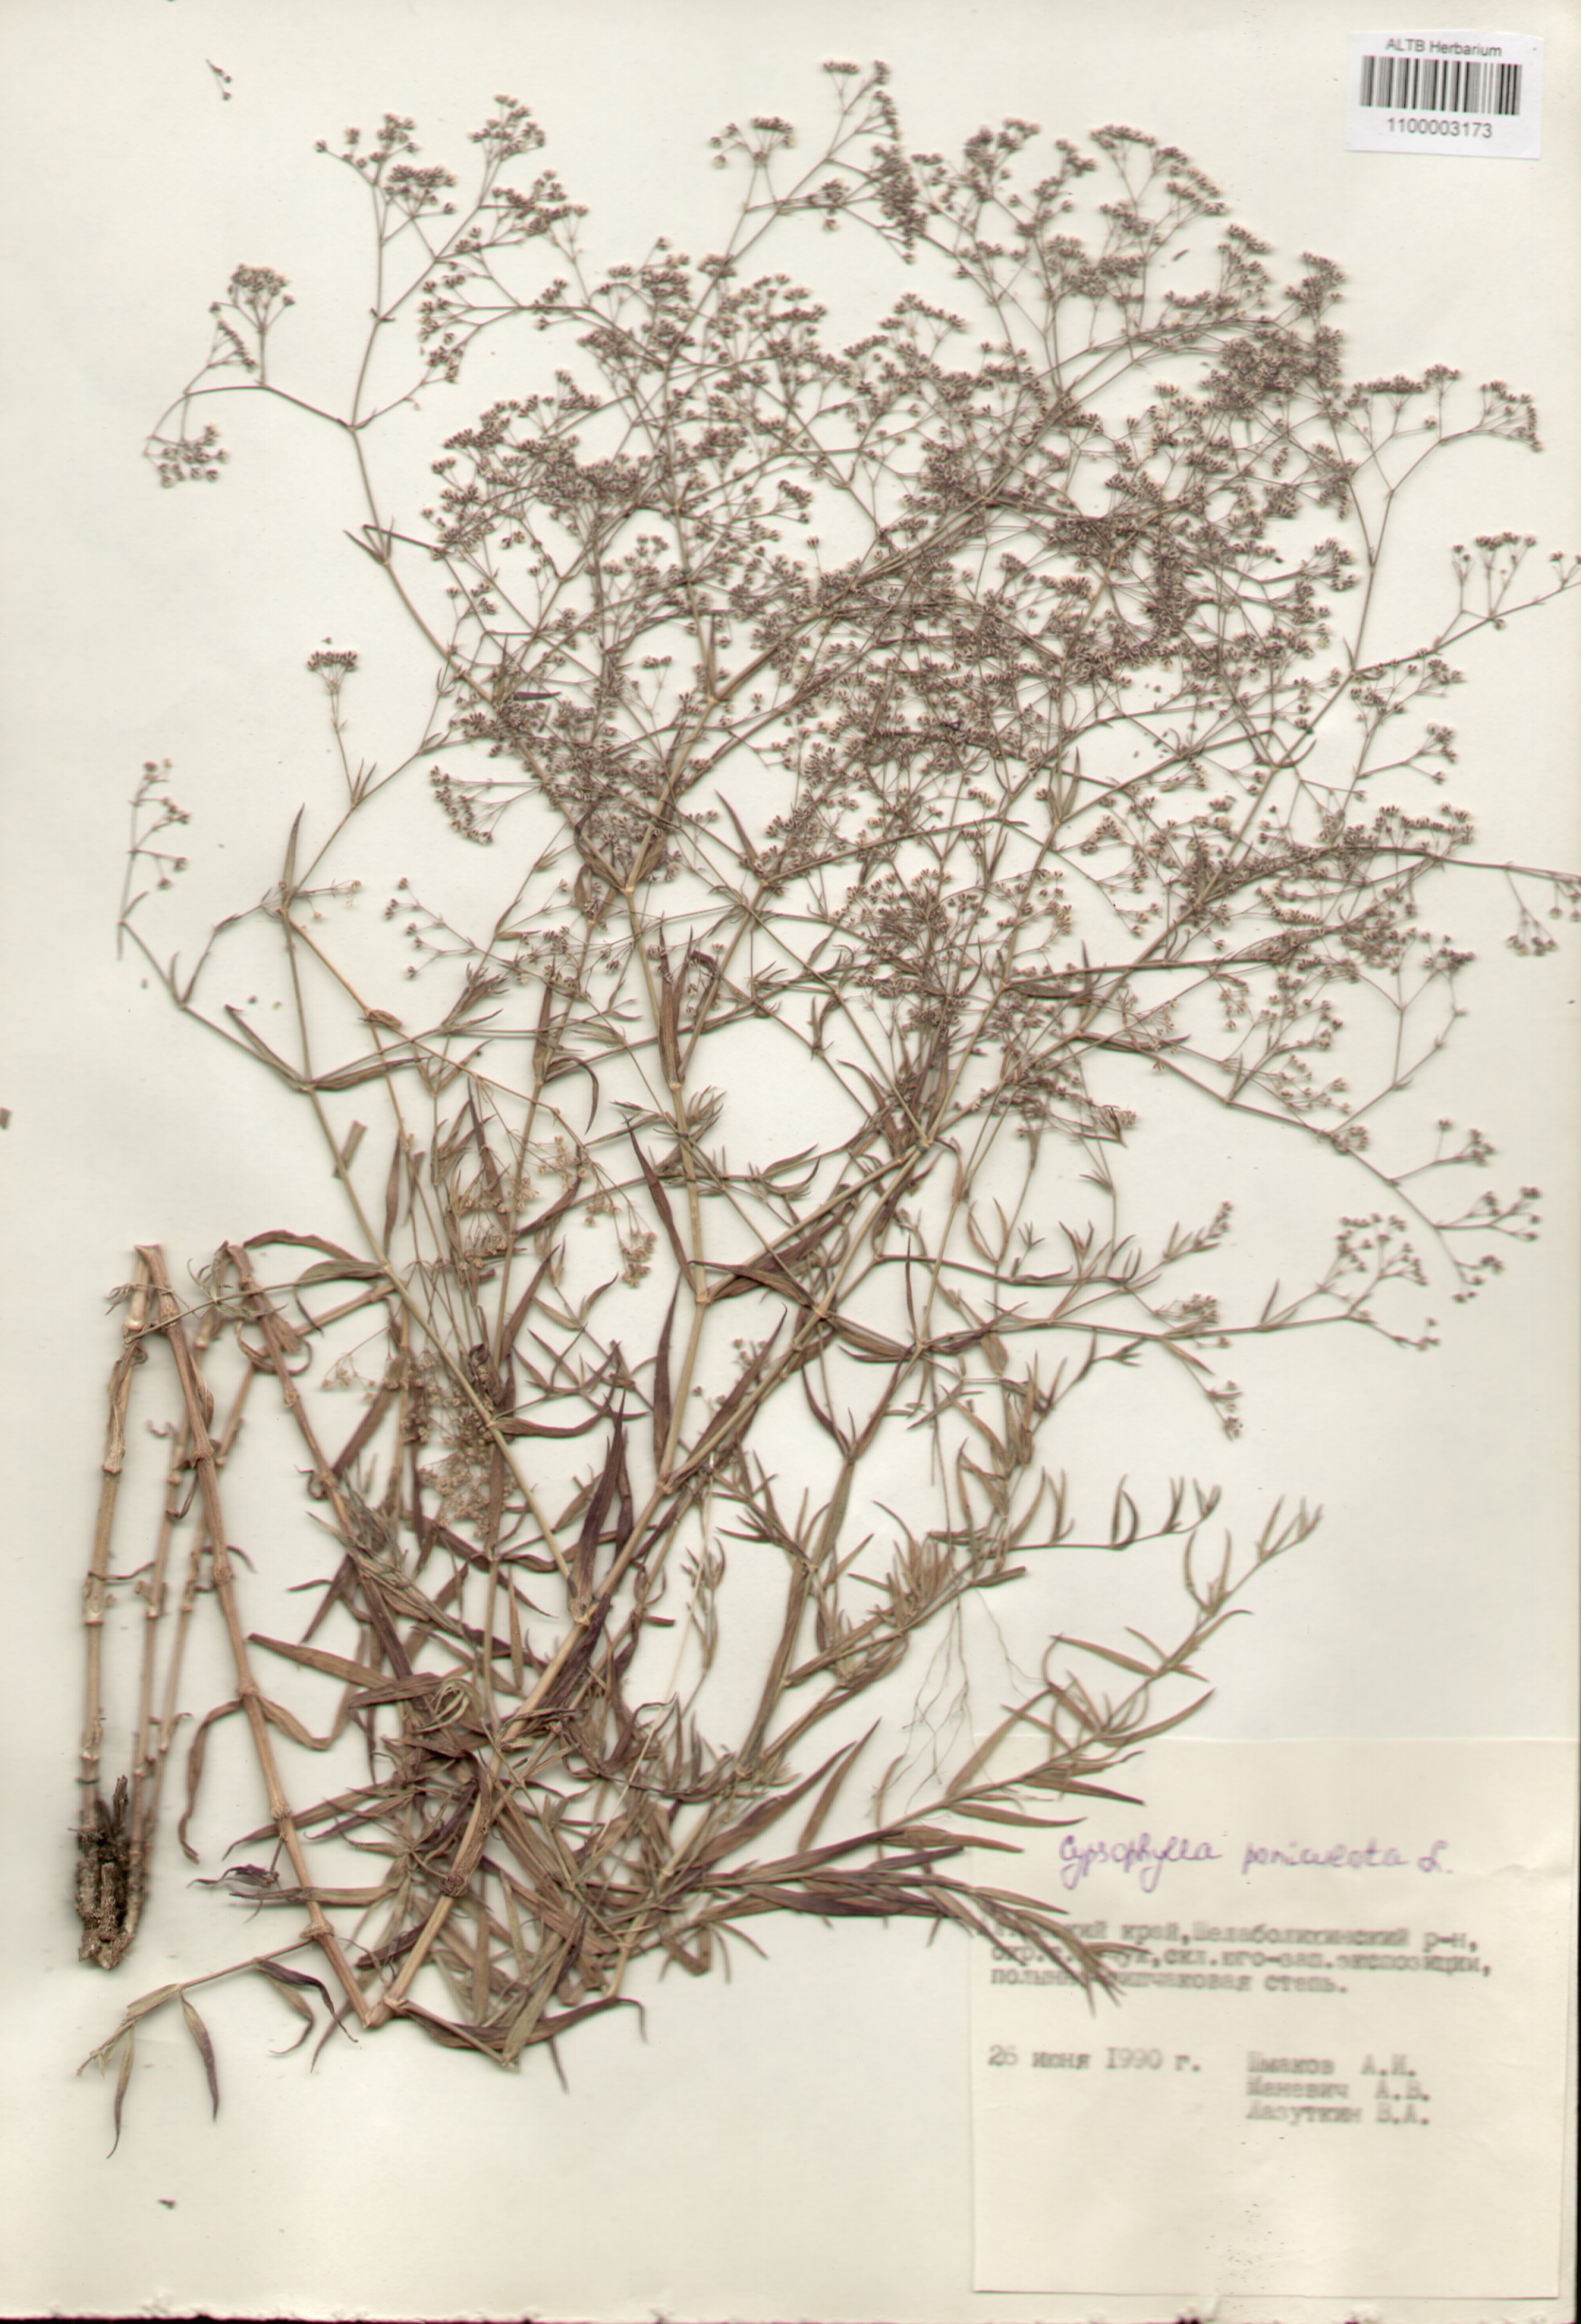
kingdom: Plantae
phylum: Tracheophyta
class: Magnoliopsida
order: Caryophyllales
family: Caryophyllaceae
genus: Gypsophila
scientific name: Gypsophila paniculata
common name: Baby's-breath
